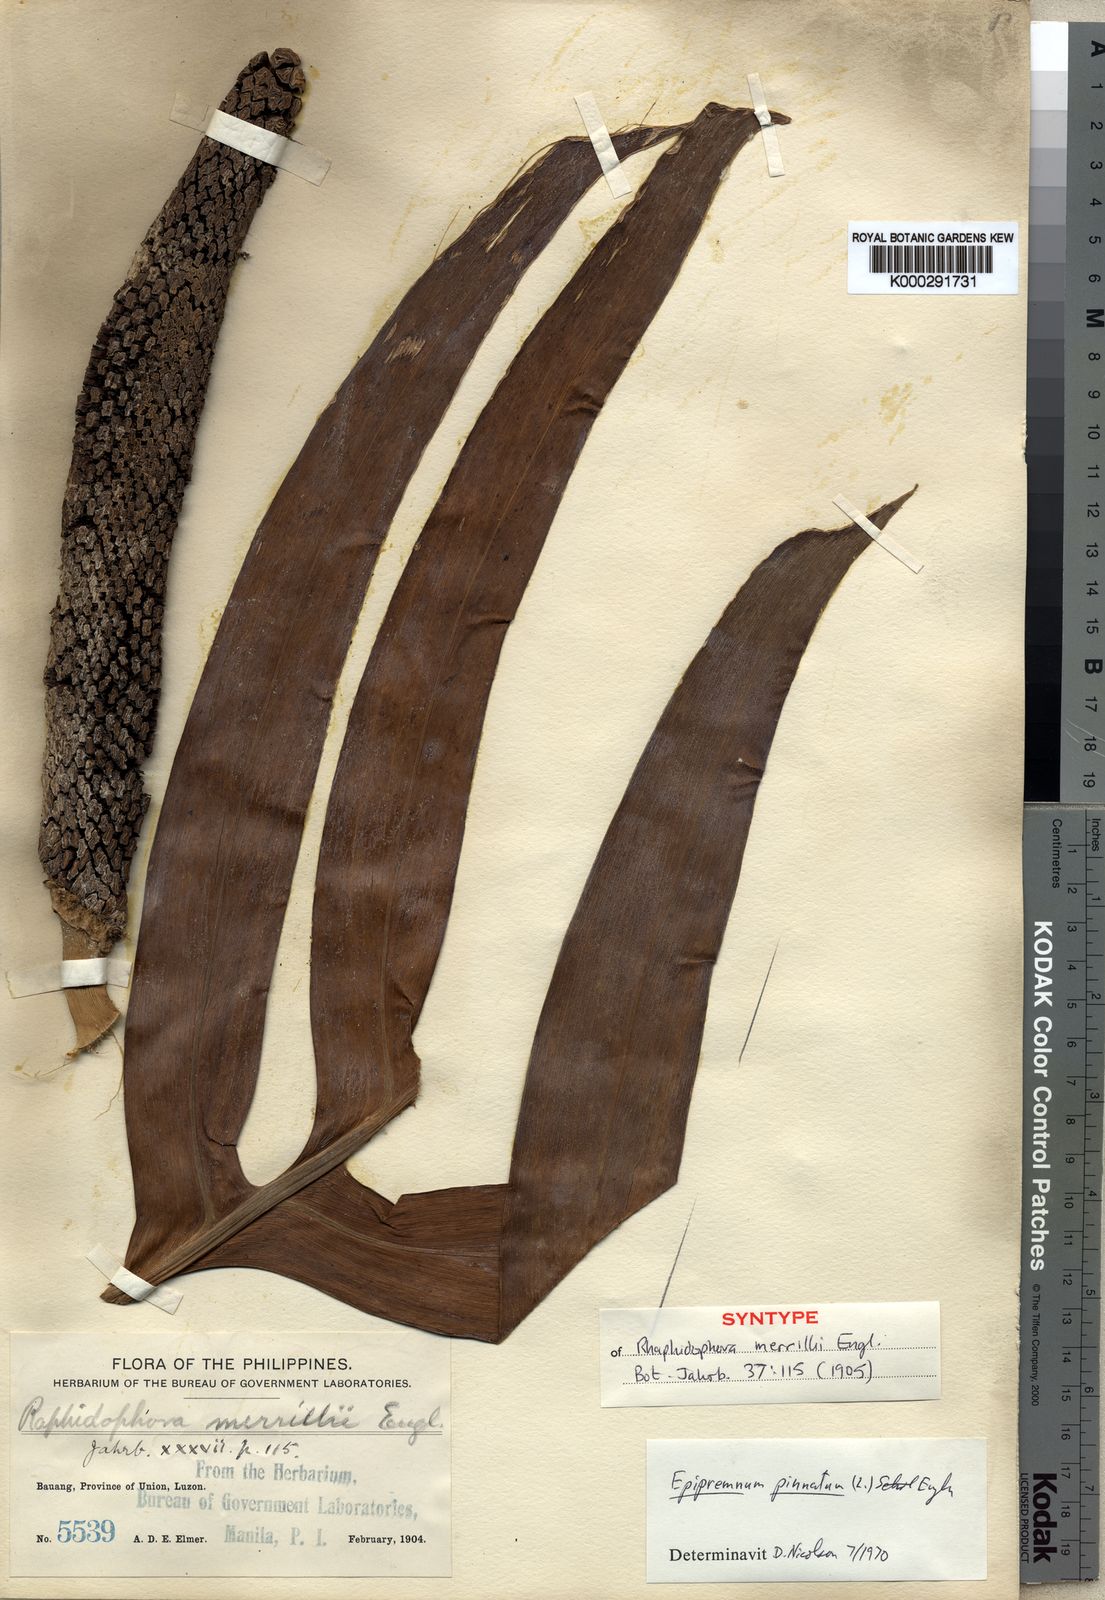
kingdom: Plantae
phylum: Tracheophyta
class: Liliopsida
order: Alismatales
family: Araceae
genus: Epipremnum
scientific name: Epipremnum pinnatum
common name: Centipede tongavine
